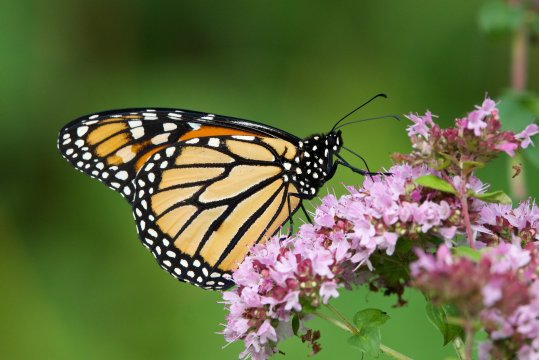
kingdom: Animalia
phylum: Arthropoda
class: Insecta
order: Lepidoptera
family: Nymphalidae
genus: Danaus
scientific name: Danaus plexippus
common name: Monarch
